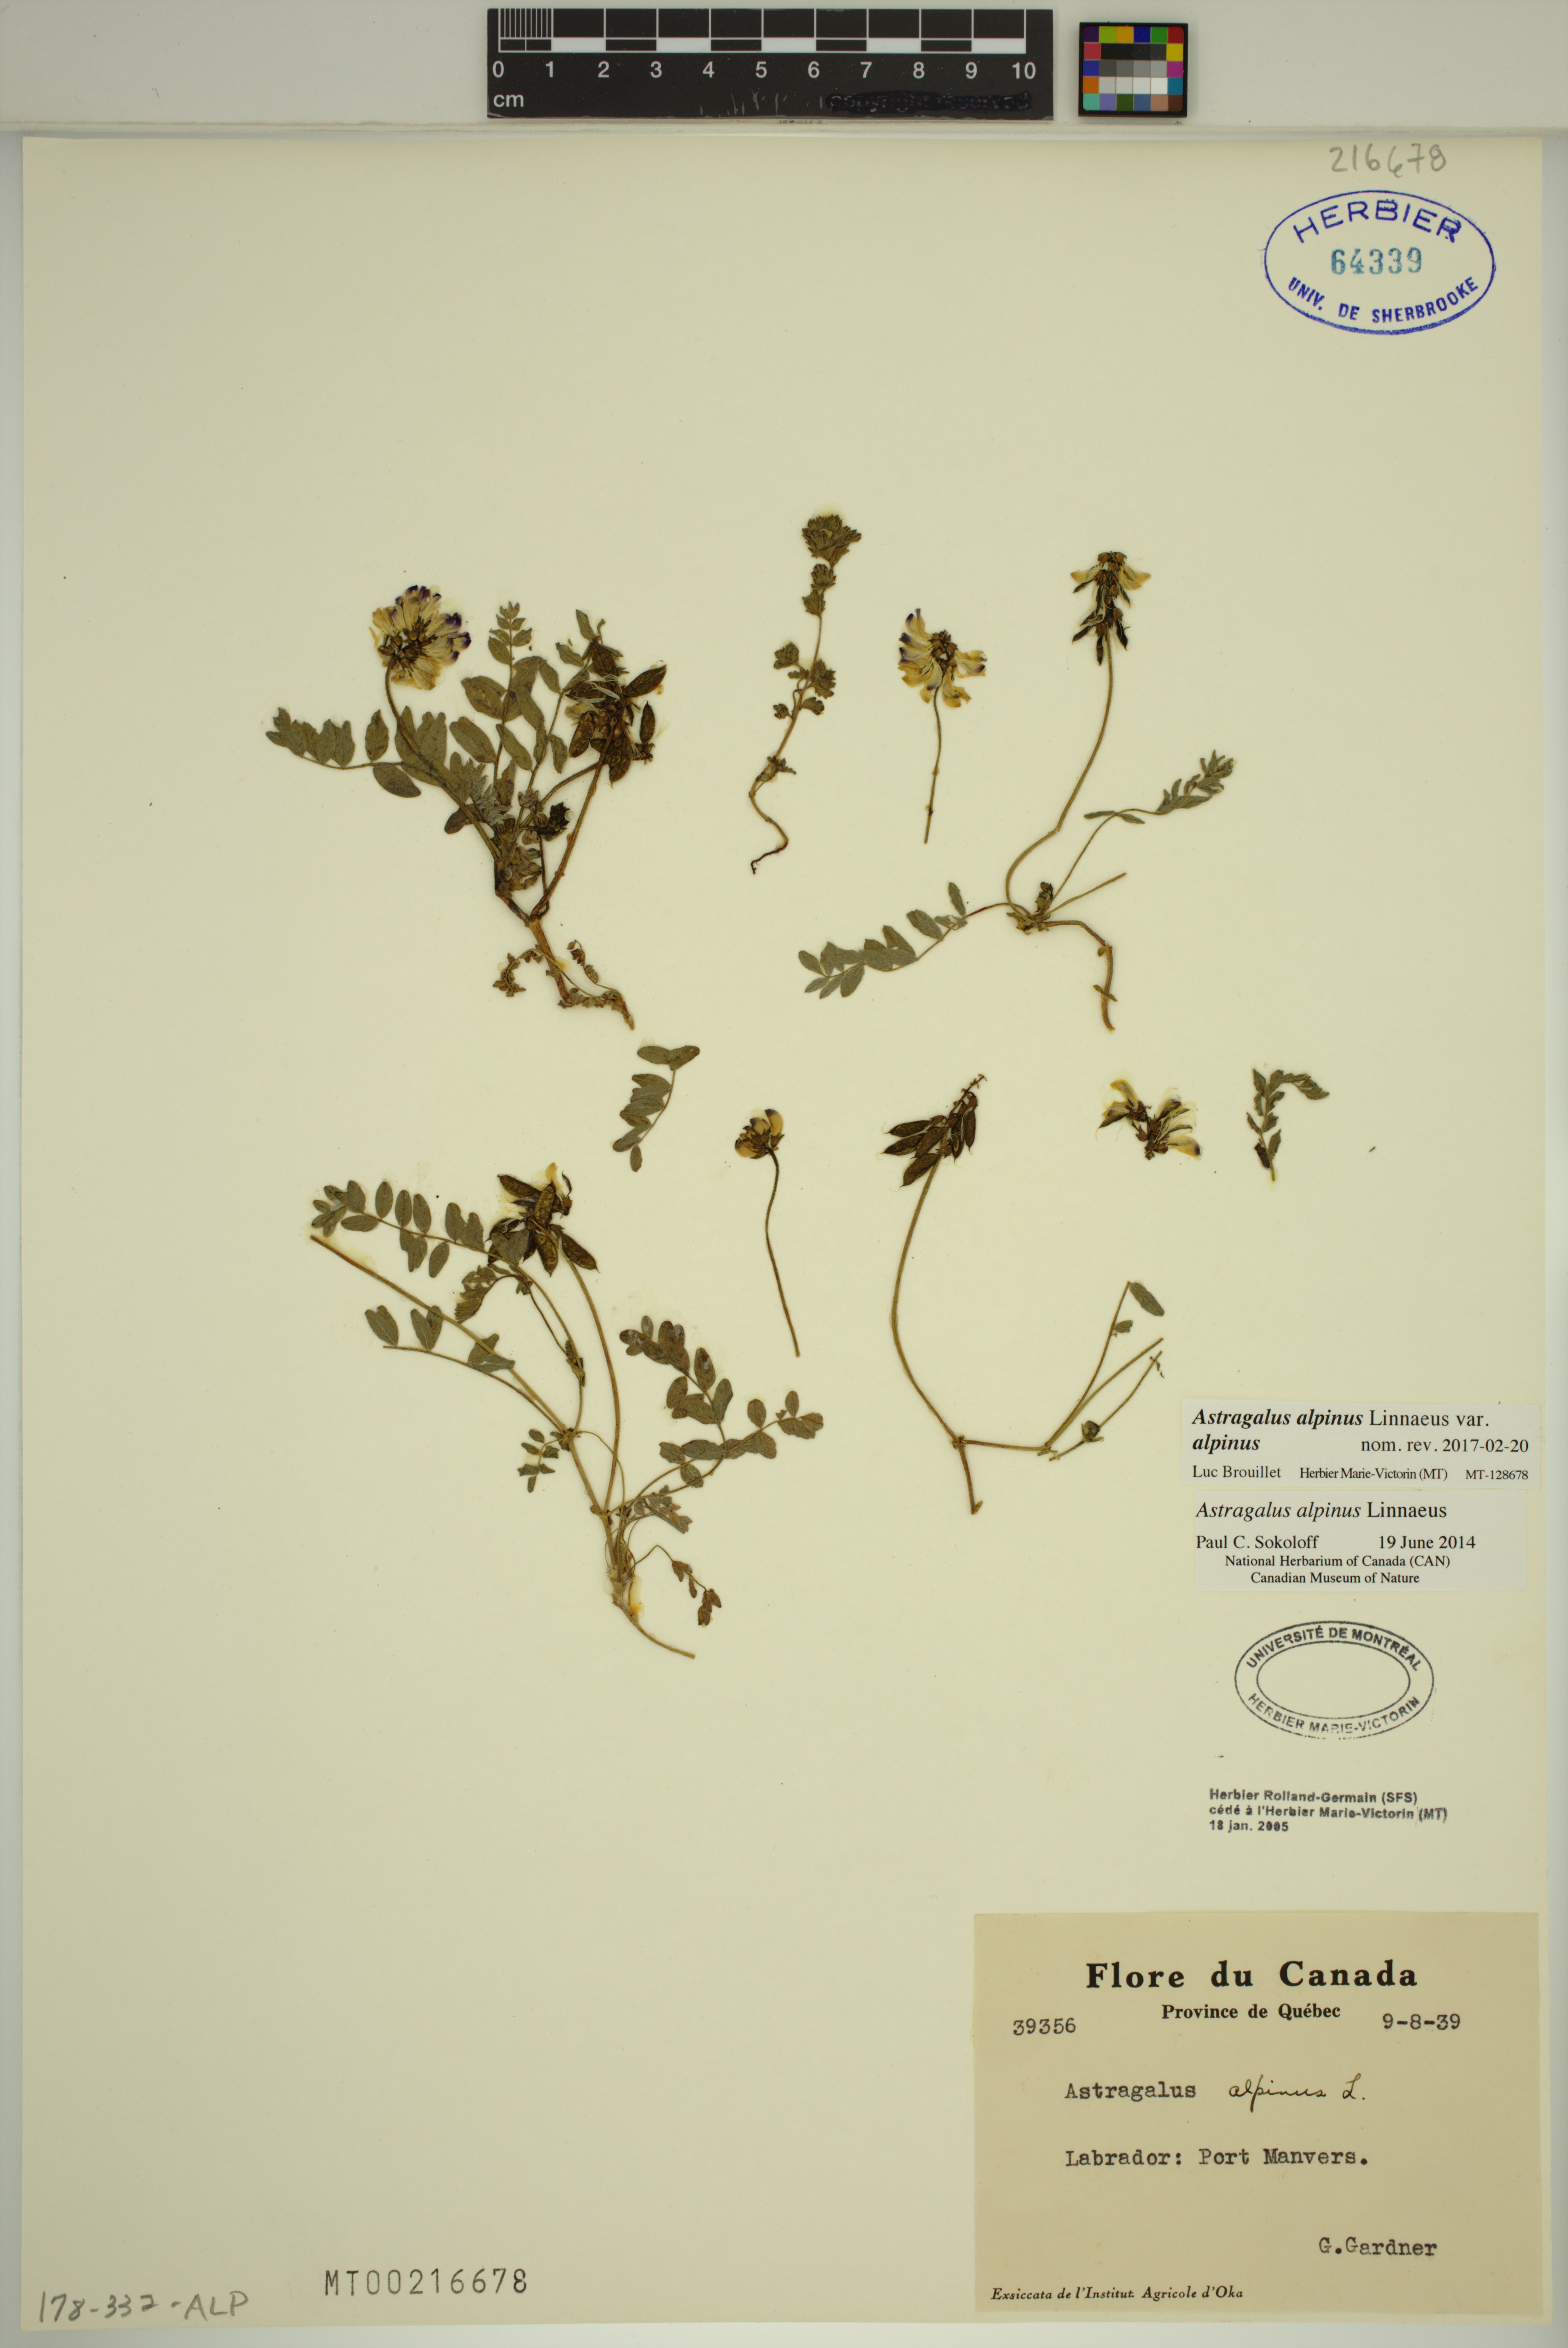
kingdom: Plantae
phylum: Tracheophyta
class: Magnoliopsida
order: Fabales
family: Fabaceae
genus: Astragalus
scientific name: Astragalus alpinus
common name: Alpine milk-vetch
